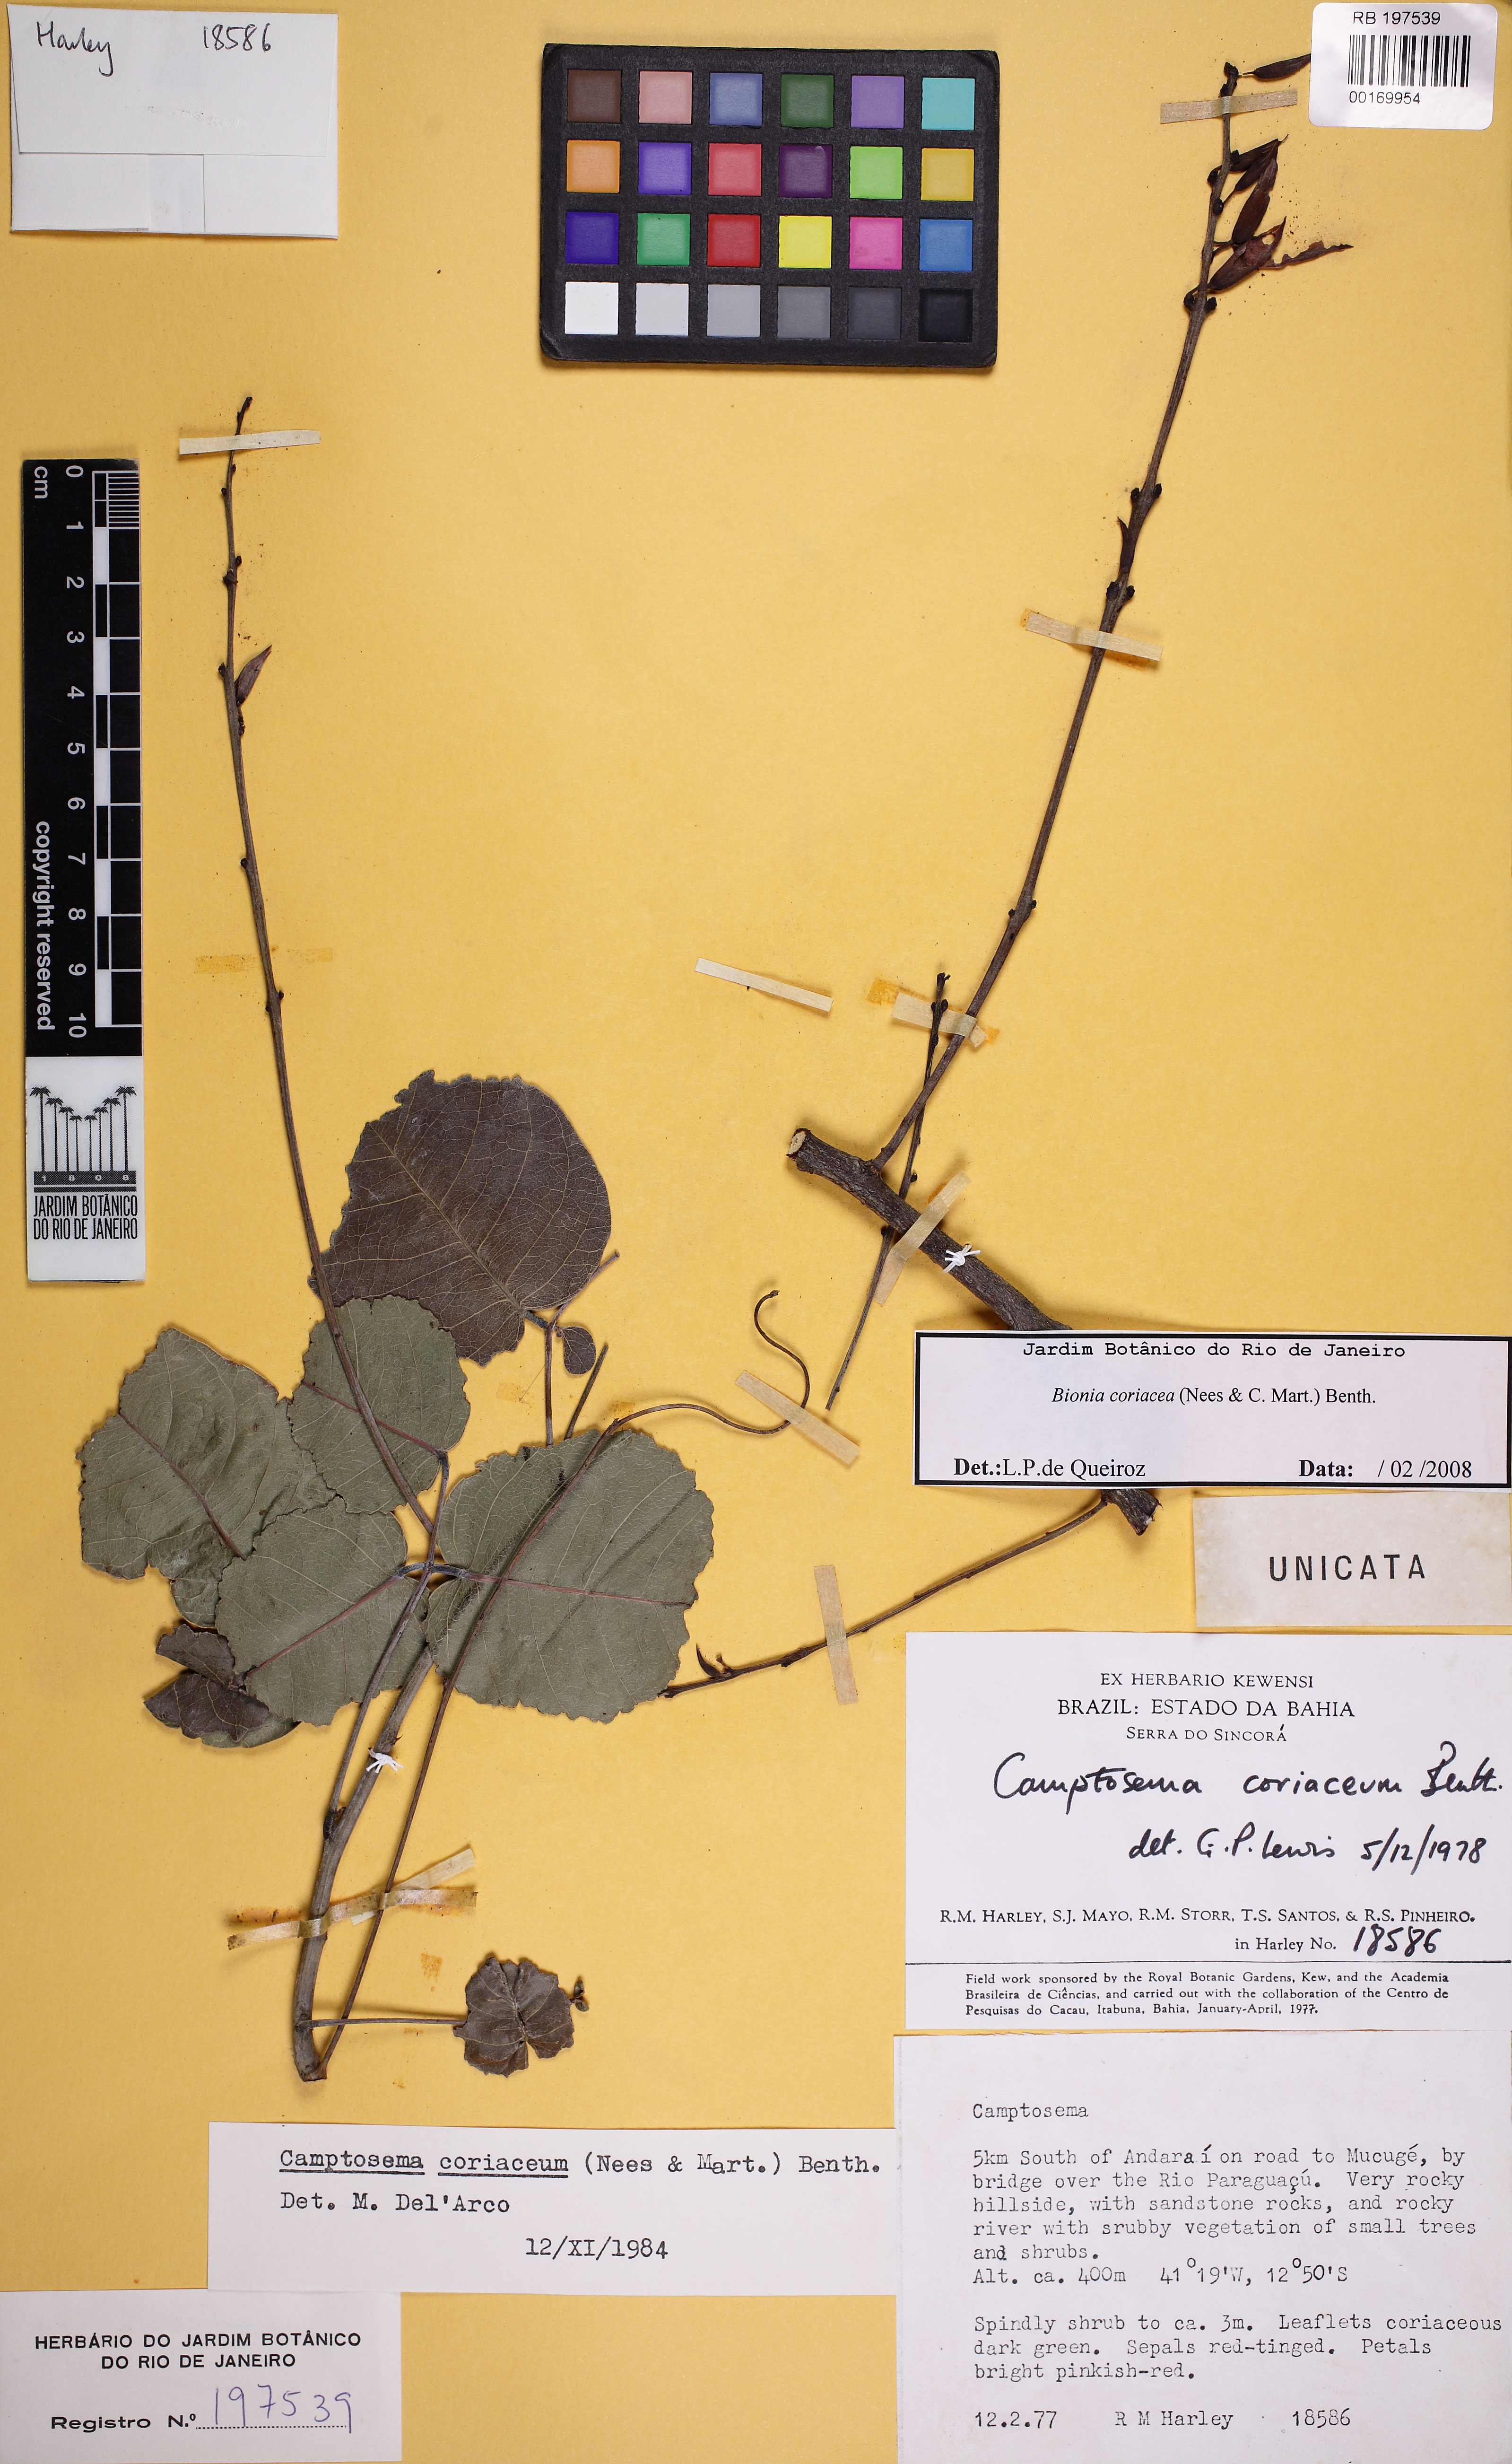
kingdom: Plantae
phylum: Tracheophyta
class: Magnoliopsida
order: Fabales
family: Fabaceae
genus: Camptosema
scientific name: Camptosema coriaceum
